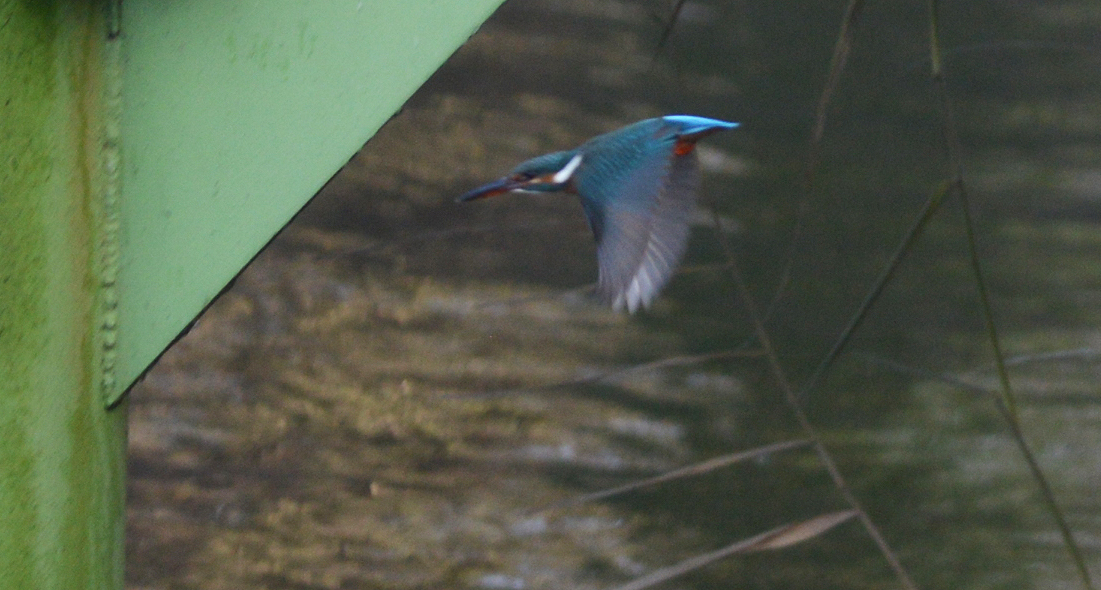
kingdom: Animalia
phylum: Chordata
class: Aves
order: Coraciiformes
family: Alcedinidae
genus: Alcedo
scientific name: Alcedo atthis
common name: Common kingfisher
